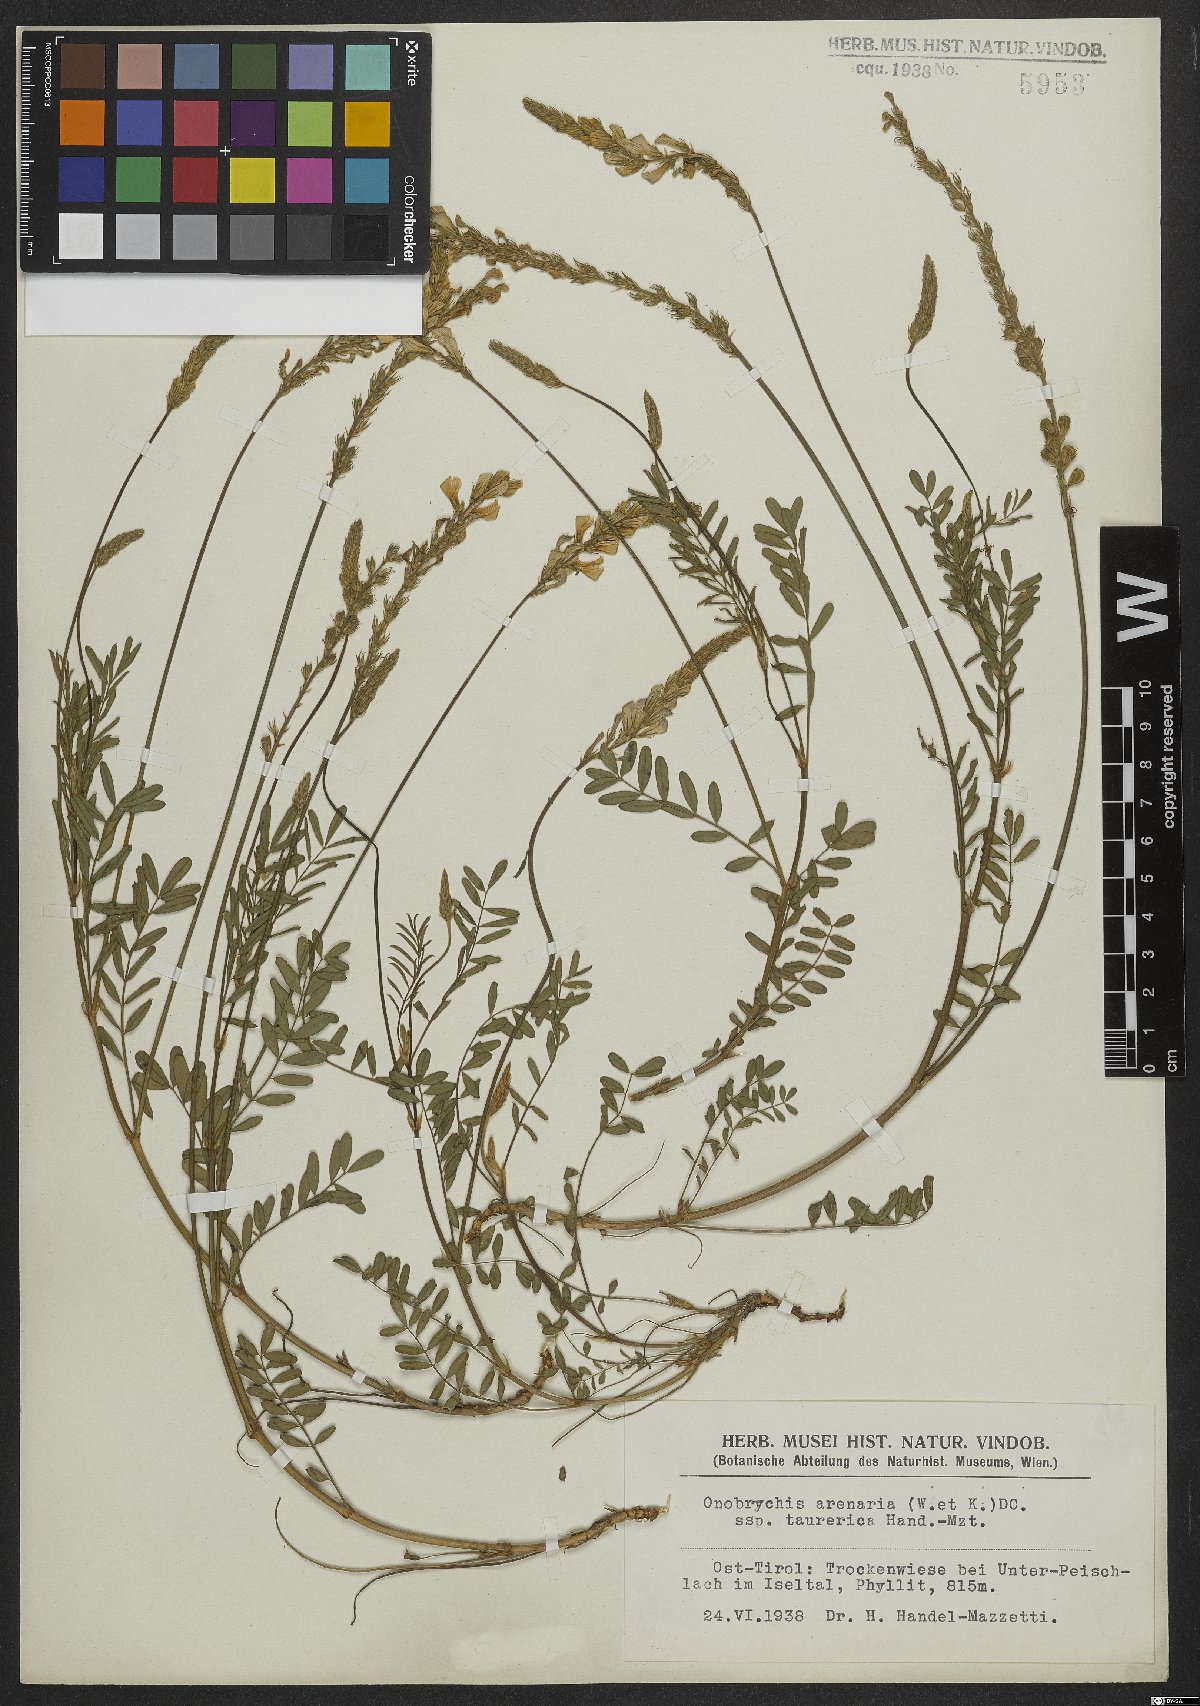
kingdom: Plantae
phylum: Tracheophyta
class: Magnoliopsida
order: Fabales
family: Fabaceae
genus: Onobrychis
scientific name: Onobrychis arenaria
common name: Sand esparcet
